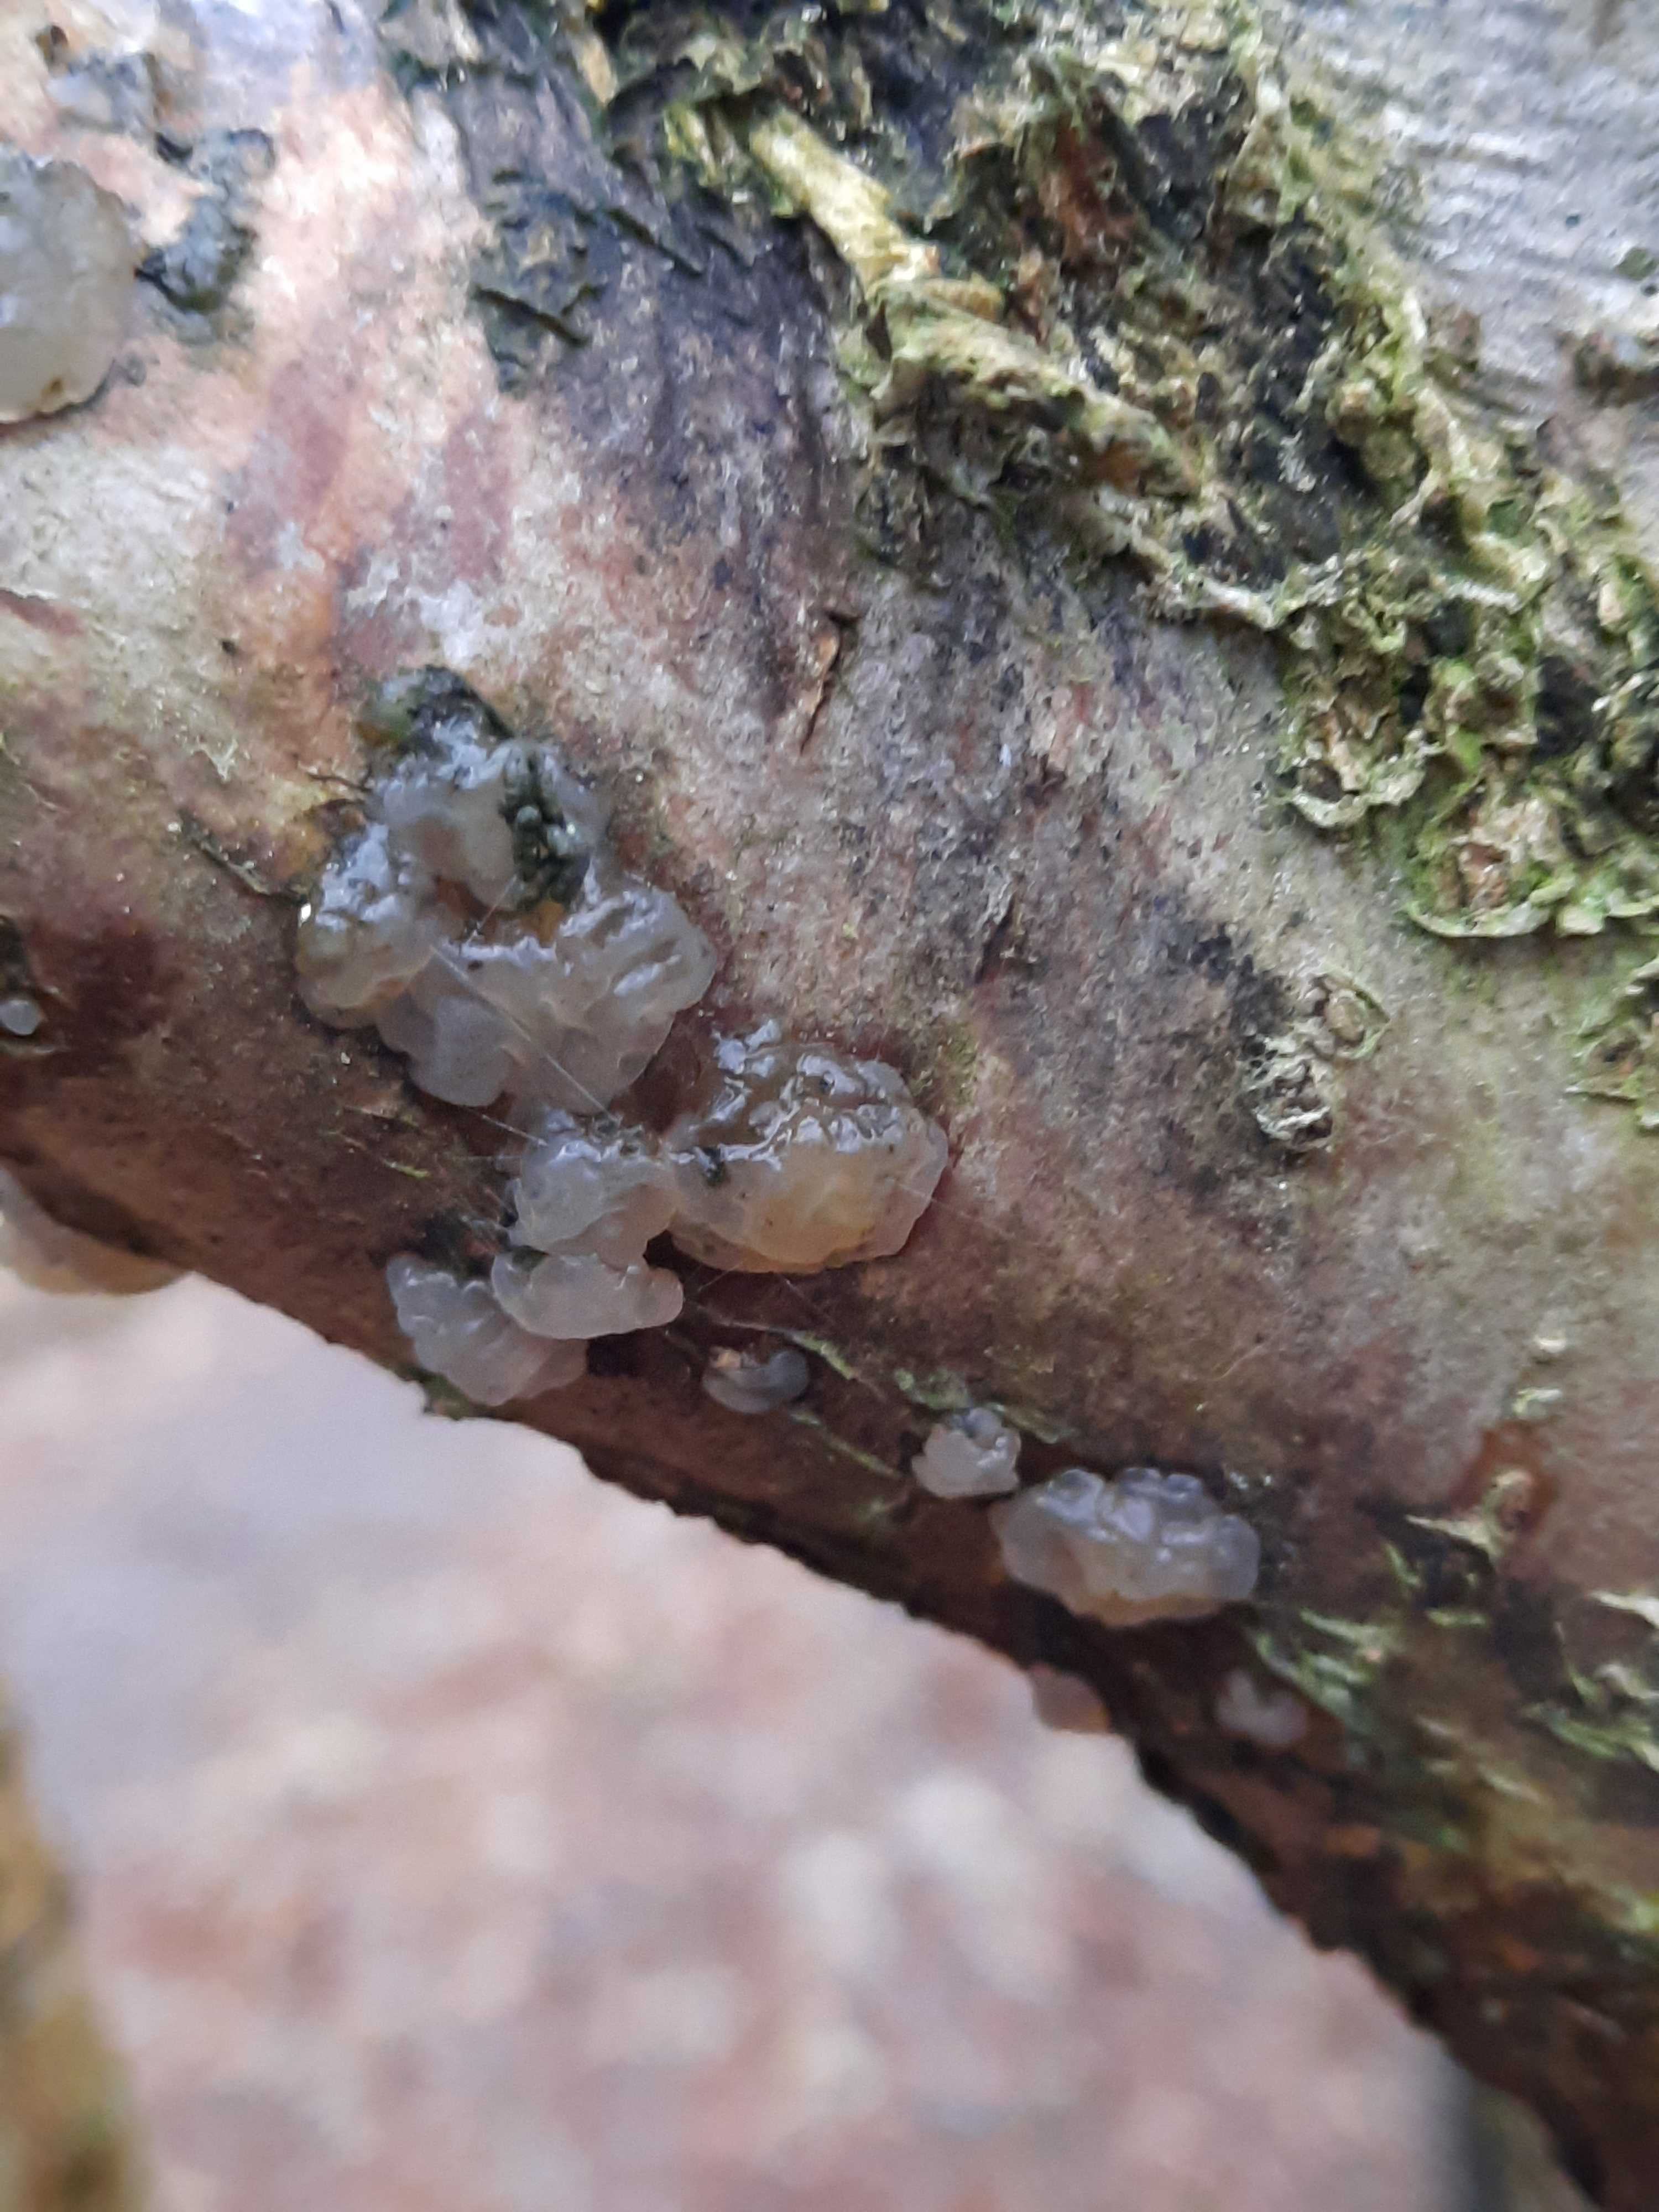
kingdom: Fungi
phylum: Basidiomycota
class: Tremellomycetes
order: Tremellales
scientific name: Tremellales
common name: bævresvampordenen
